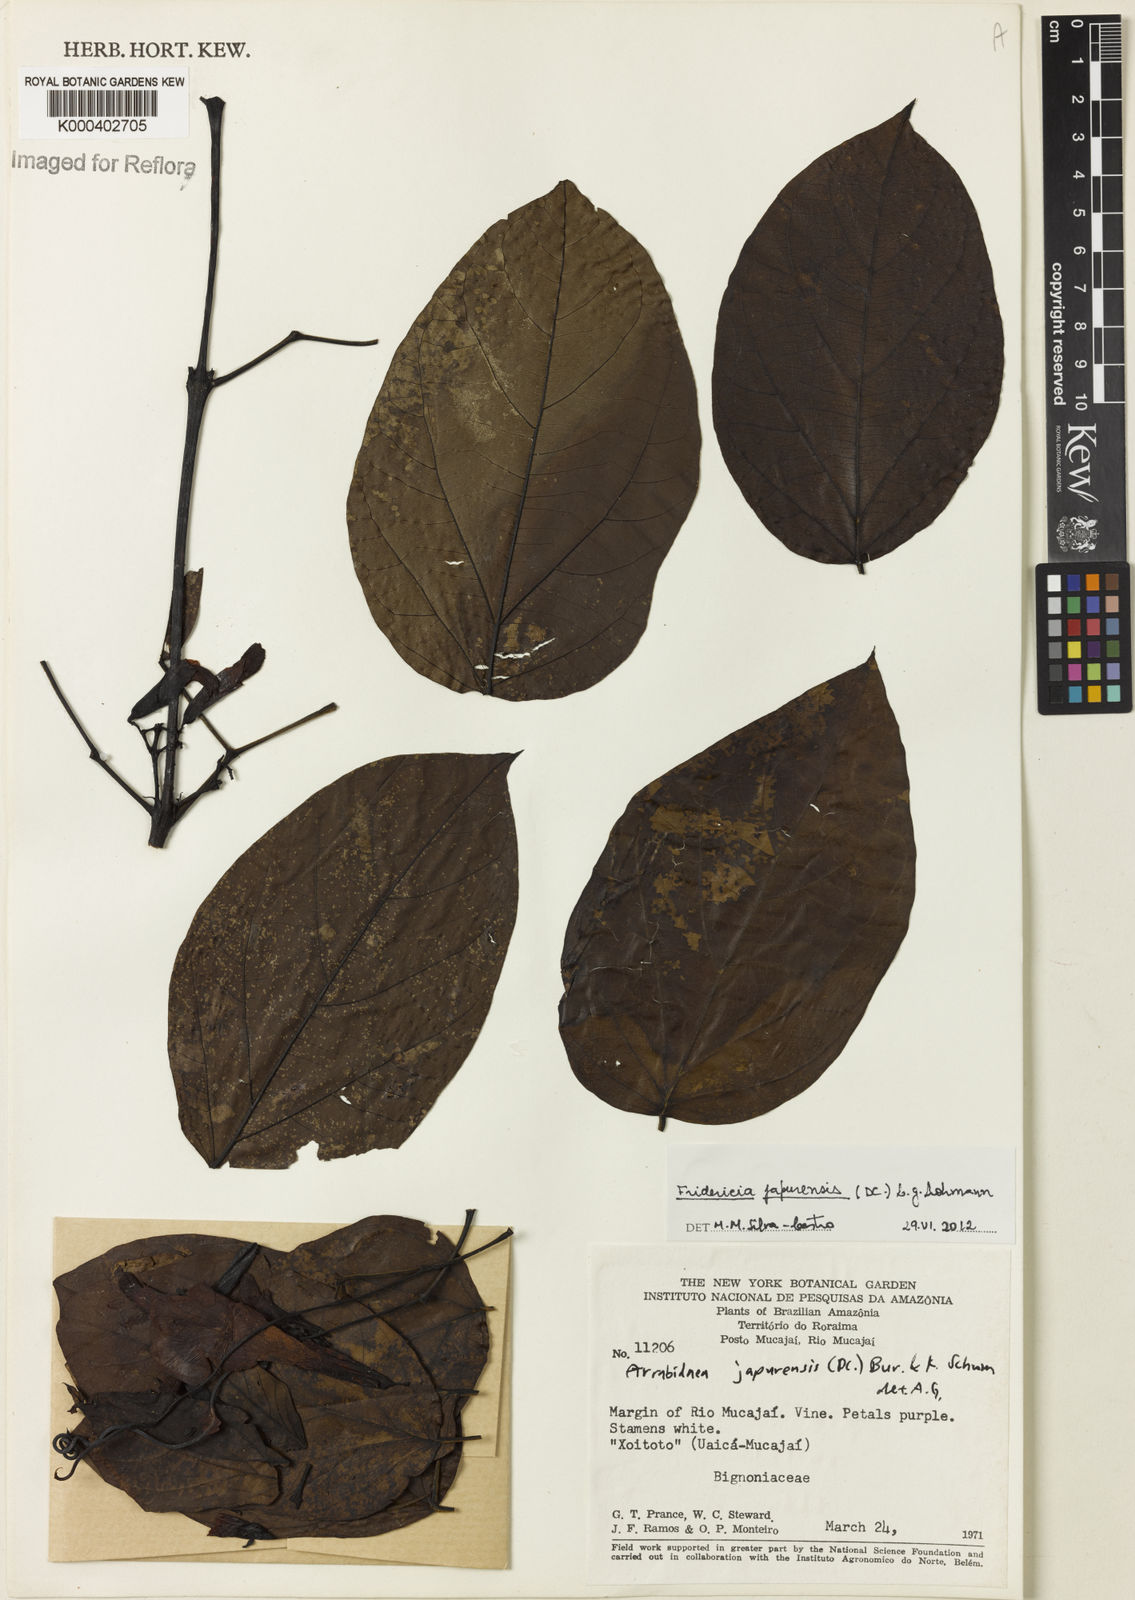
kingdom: Plantae
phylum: Tracheophyta
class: Magnoliopsida
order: Lamiales
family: Bignoniaceae
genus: Fridericia
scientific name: Fridericia japurensis
